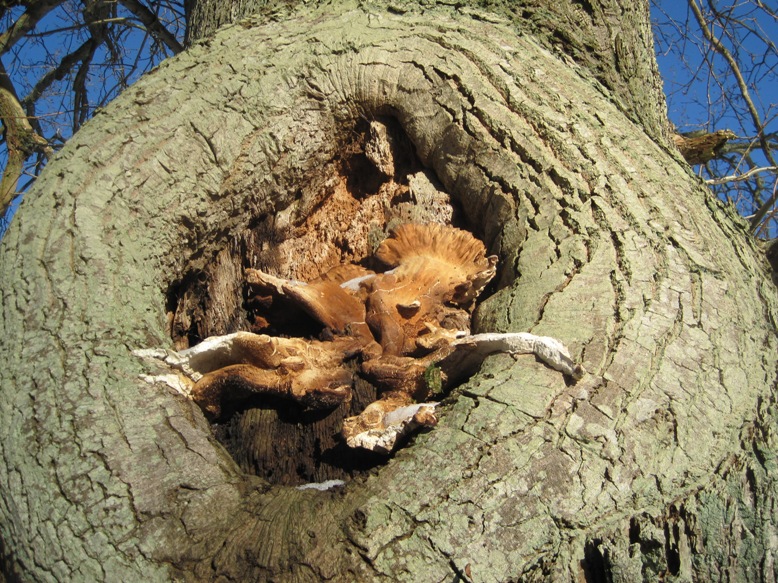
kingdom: Fungi
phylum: Basidiomycota
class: Agaricomycetes
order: Polyporales
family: Laetiporaceae
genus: Laetiporus
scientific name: Laetiporus sulphureus
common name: svovlporesvamp
